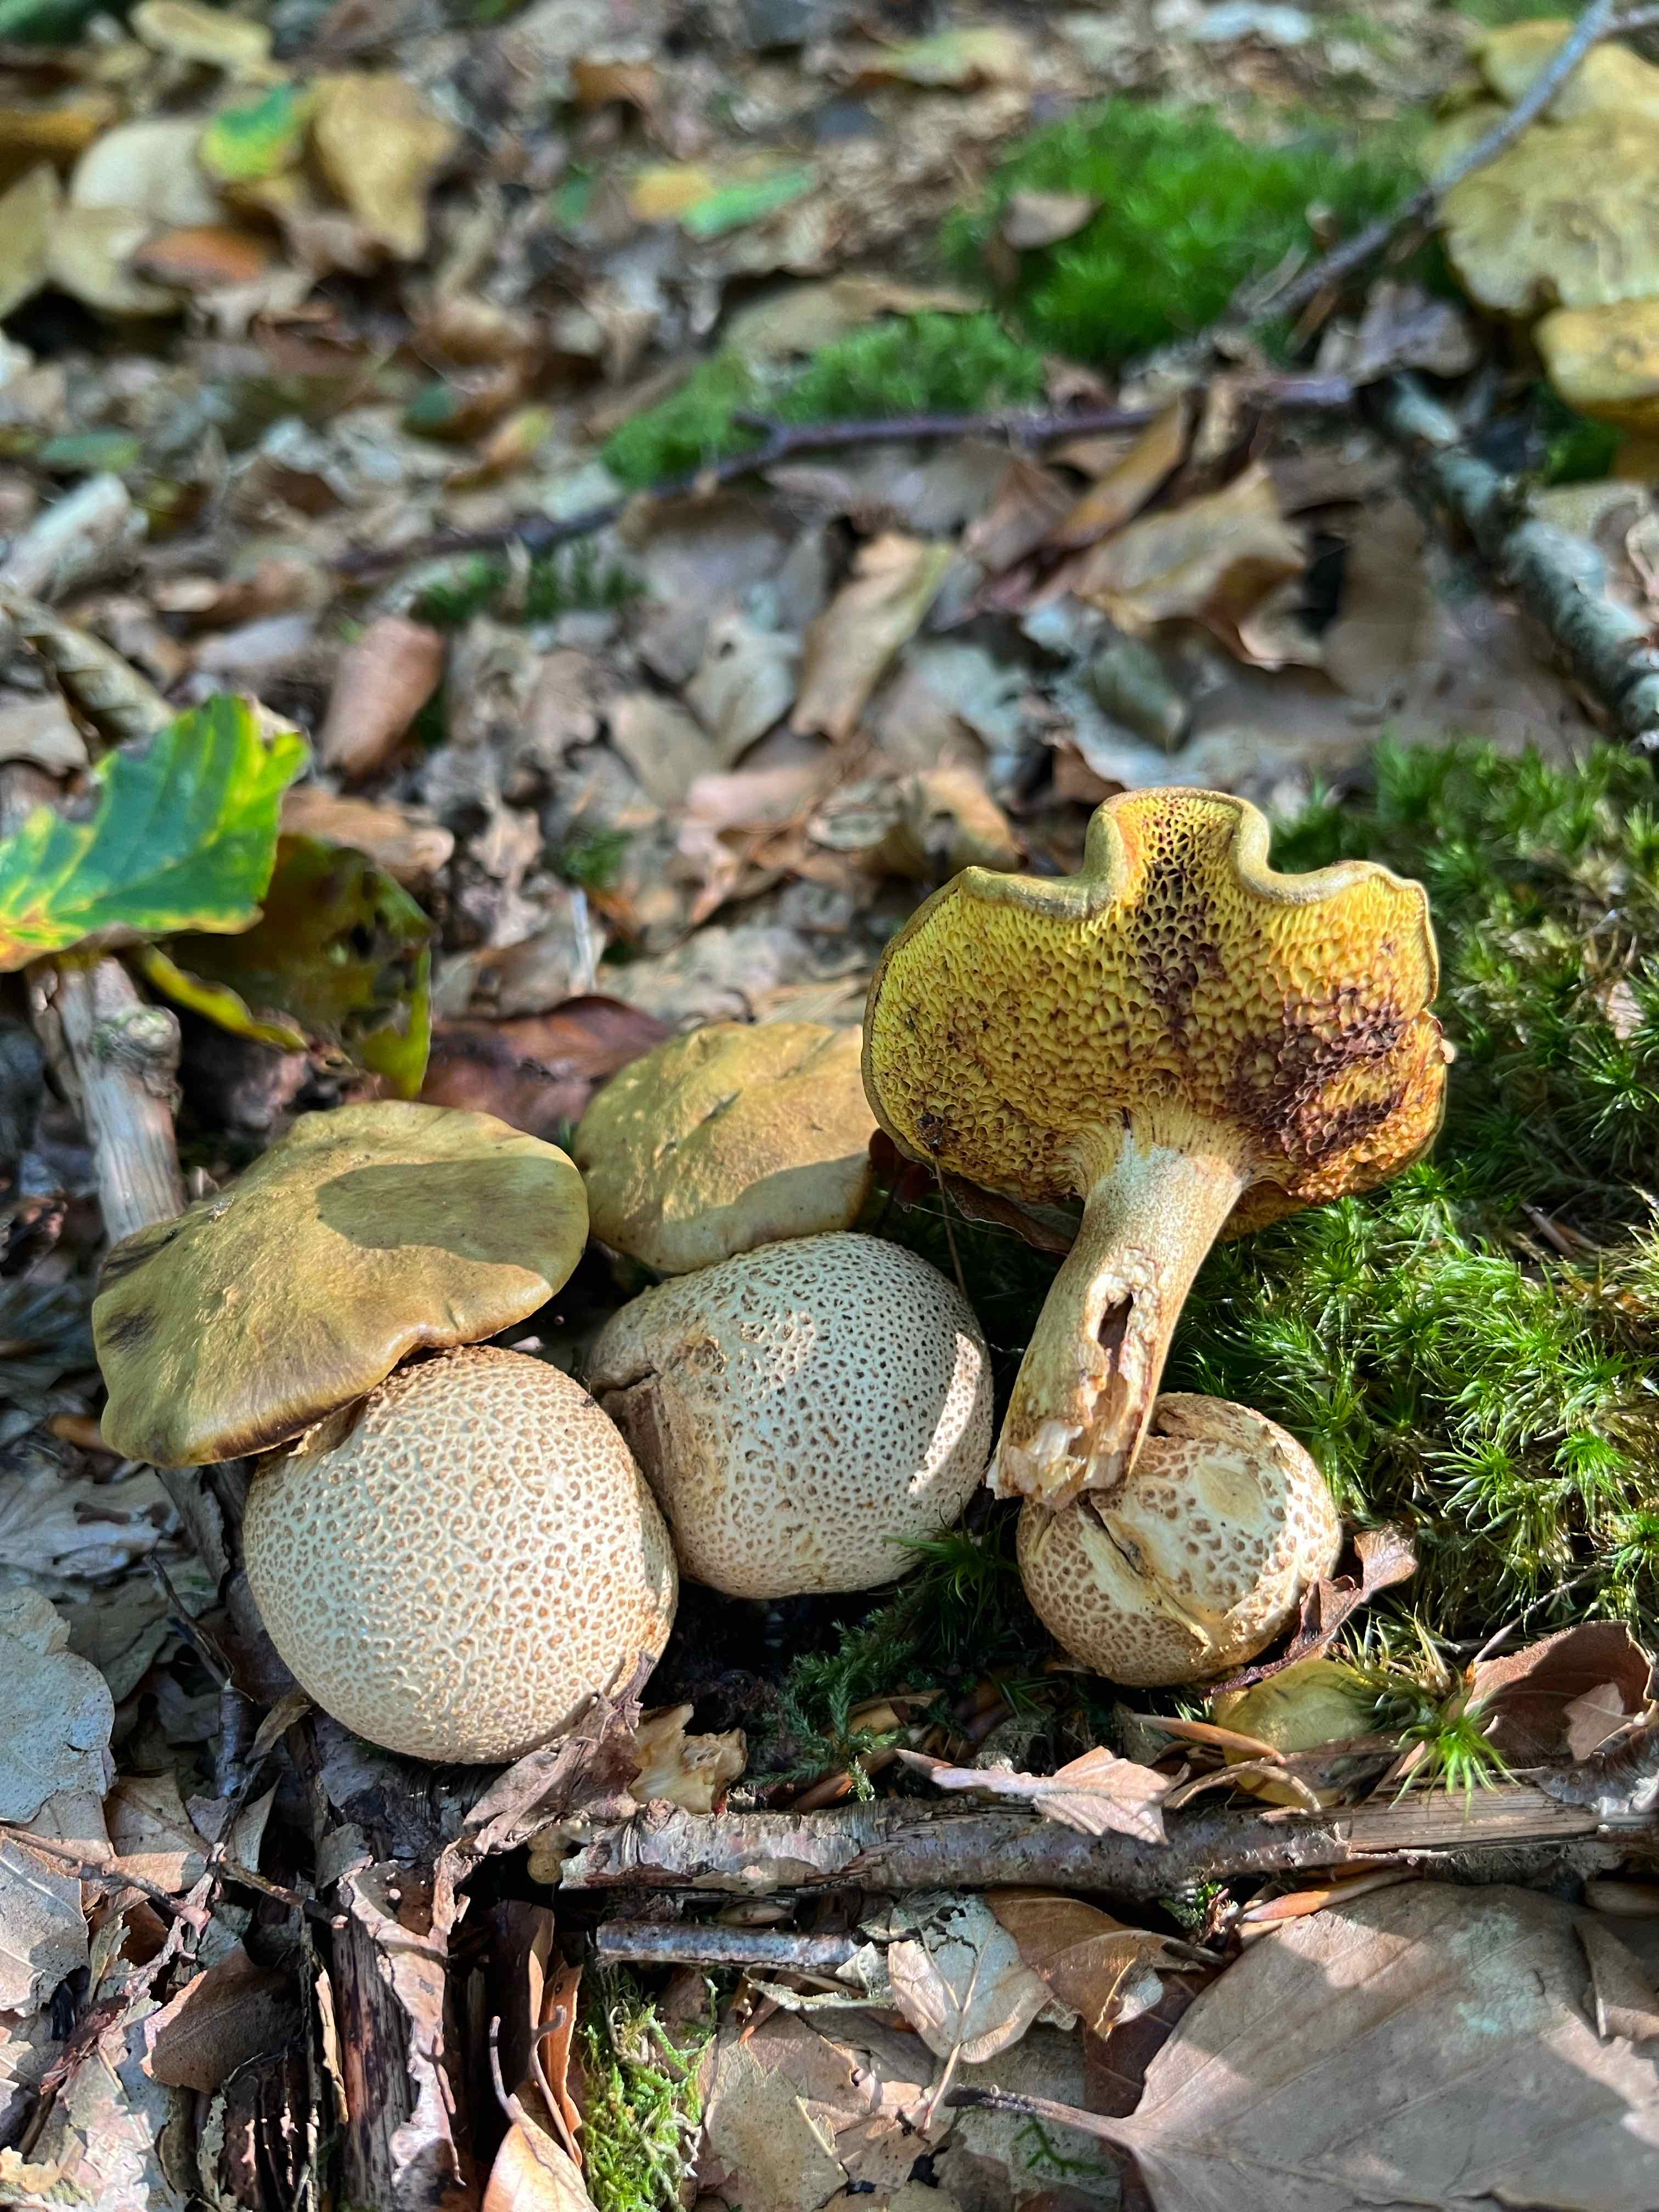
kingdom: Fungi
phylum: Basidiomycota
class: Agaricomycetes
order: Boletales
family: Boletaceae
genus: Pseudoboletus
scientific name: Pseudoboletus parasiticus
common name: snyltende rørhat
